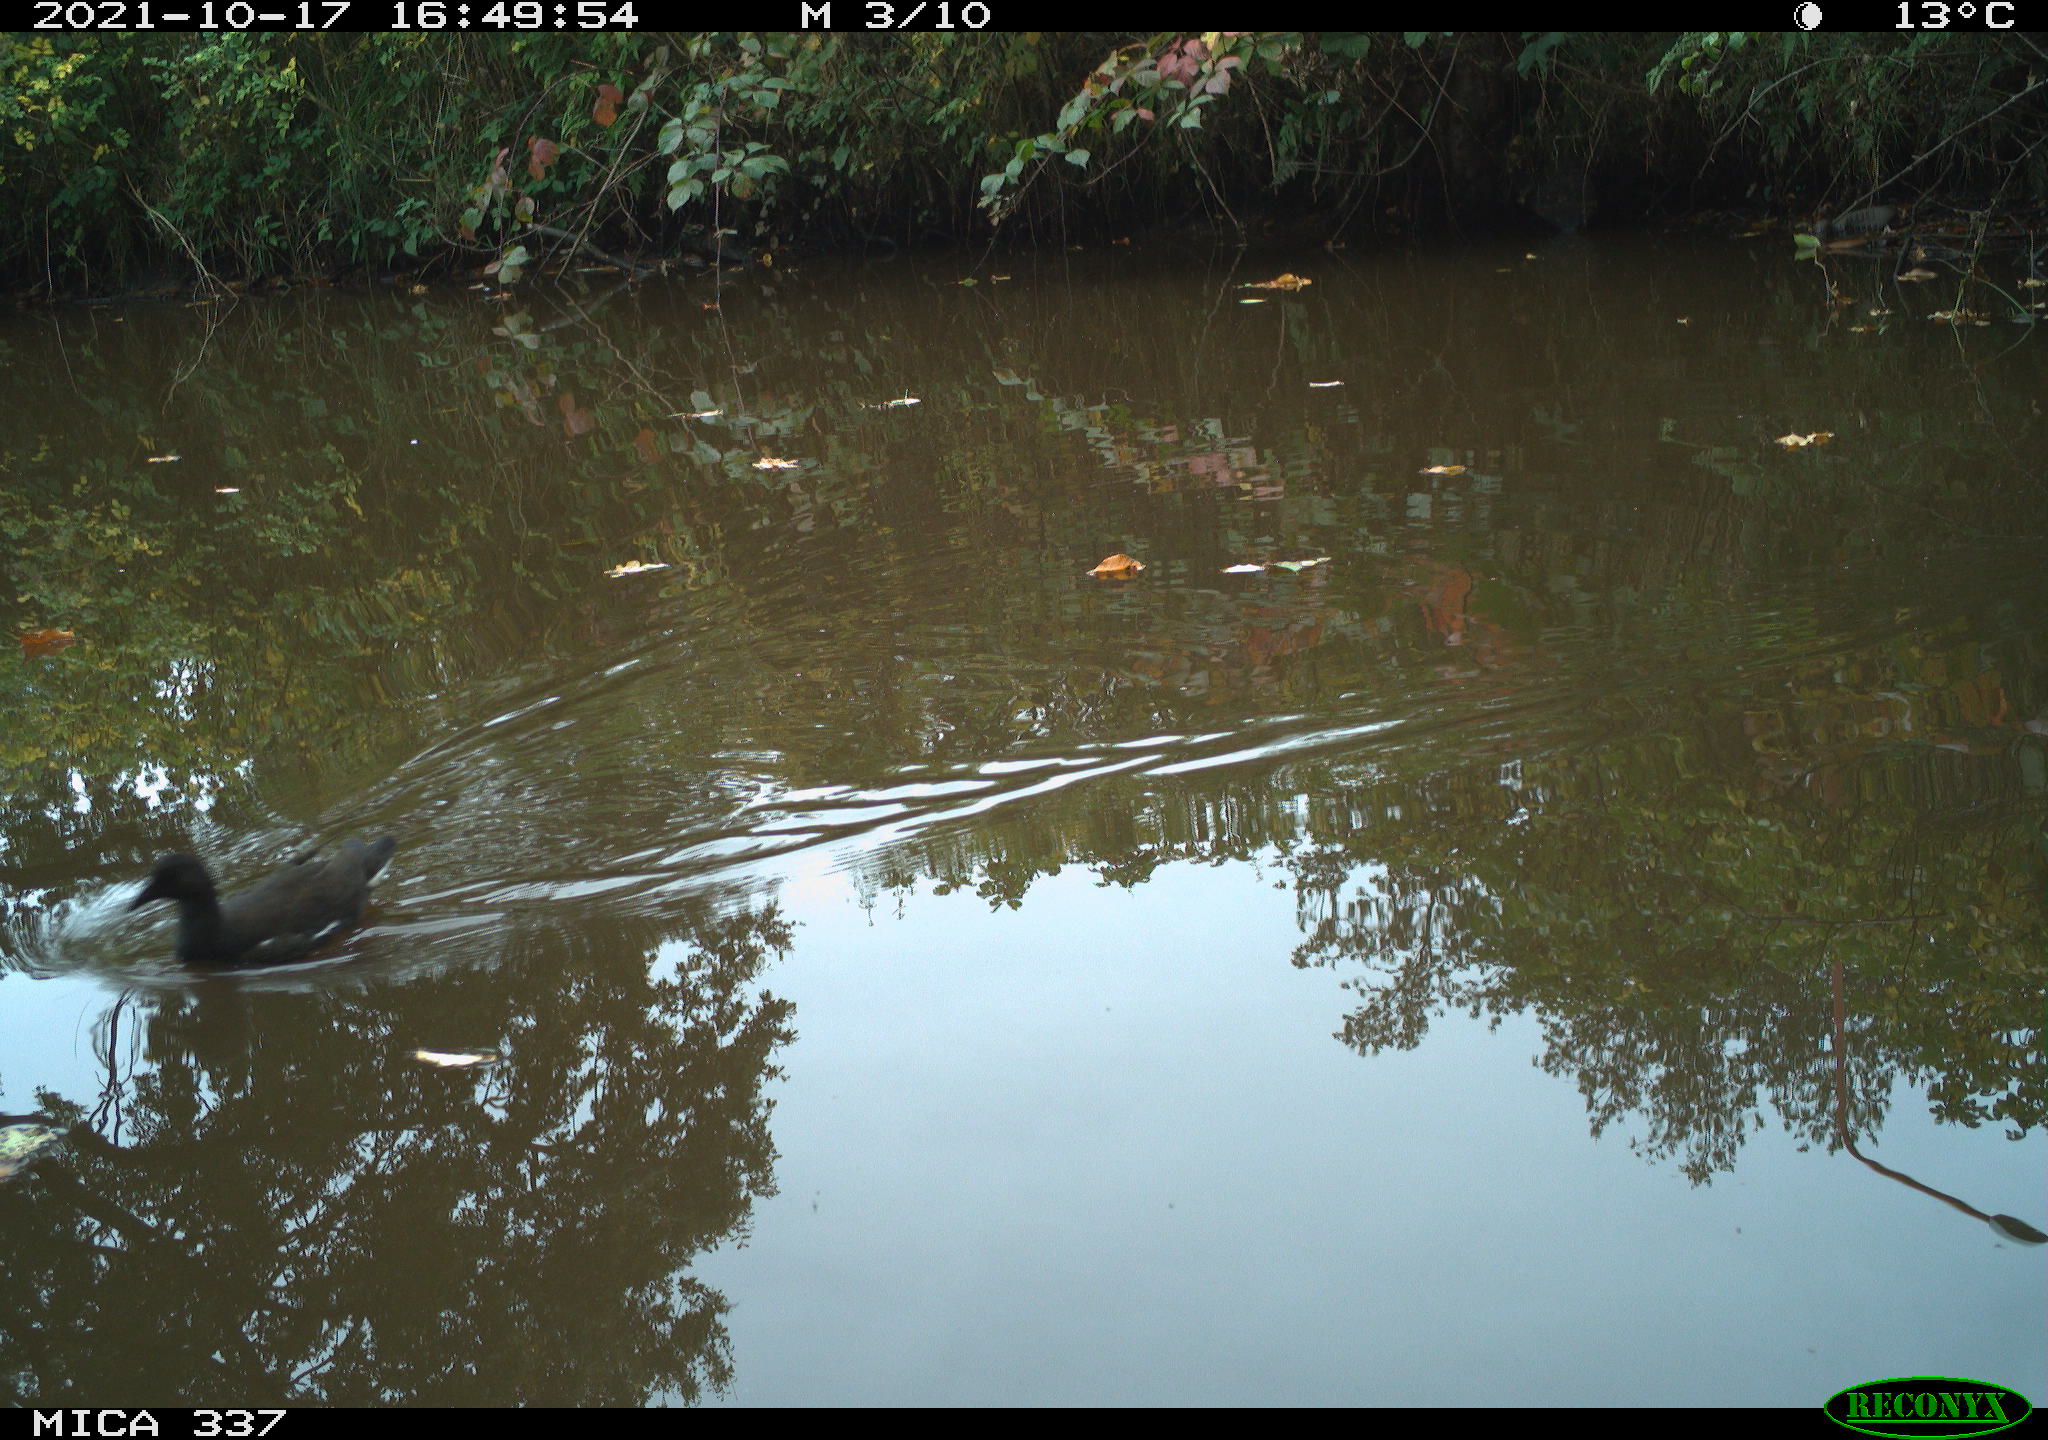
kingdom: Animalia
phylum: Chordata
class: Aves
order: Gruiformes
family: Rallidae
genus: Gallinula
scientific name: Gallinula chloropus
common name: Common moorhen
